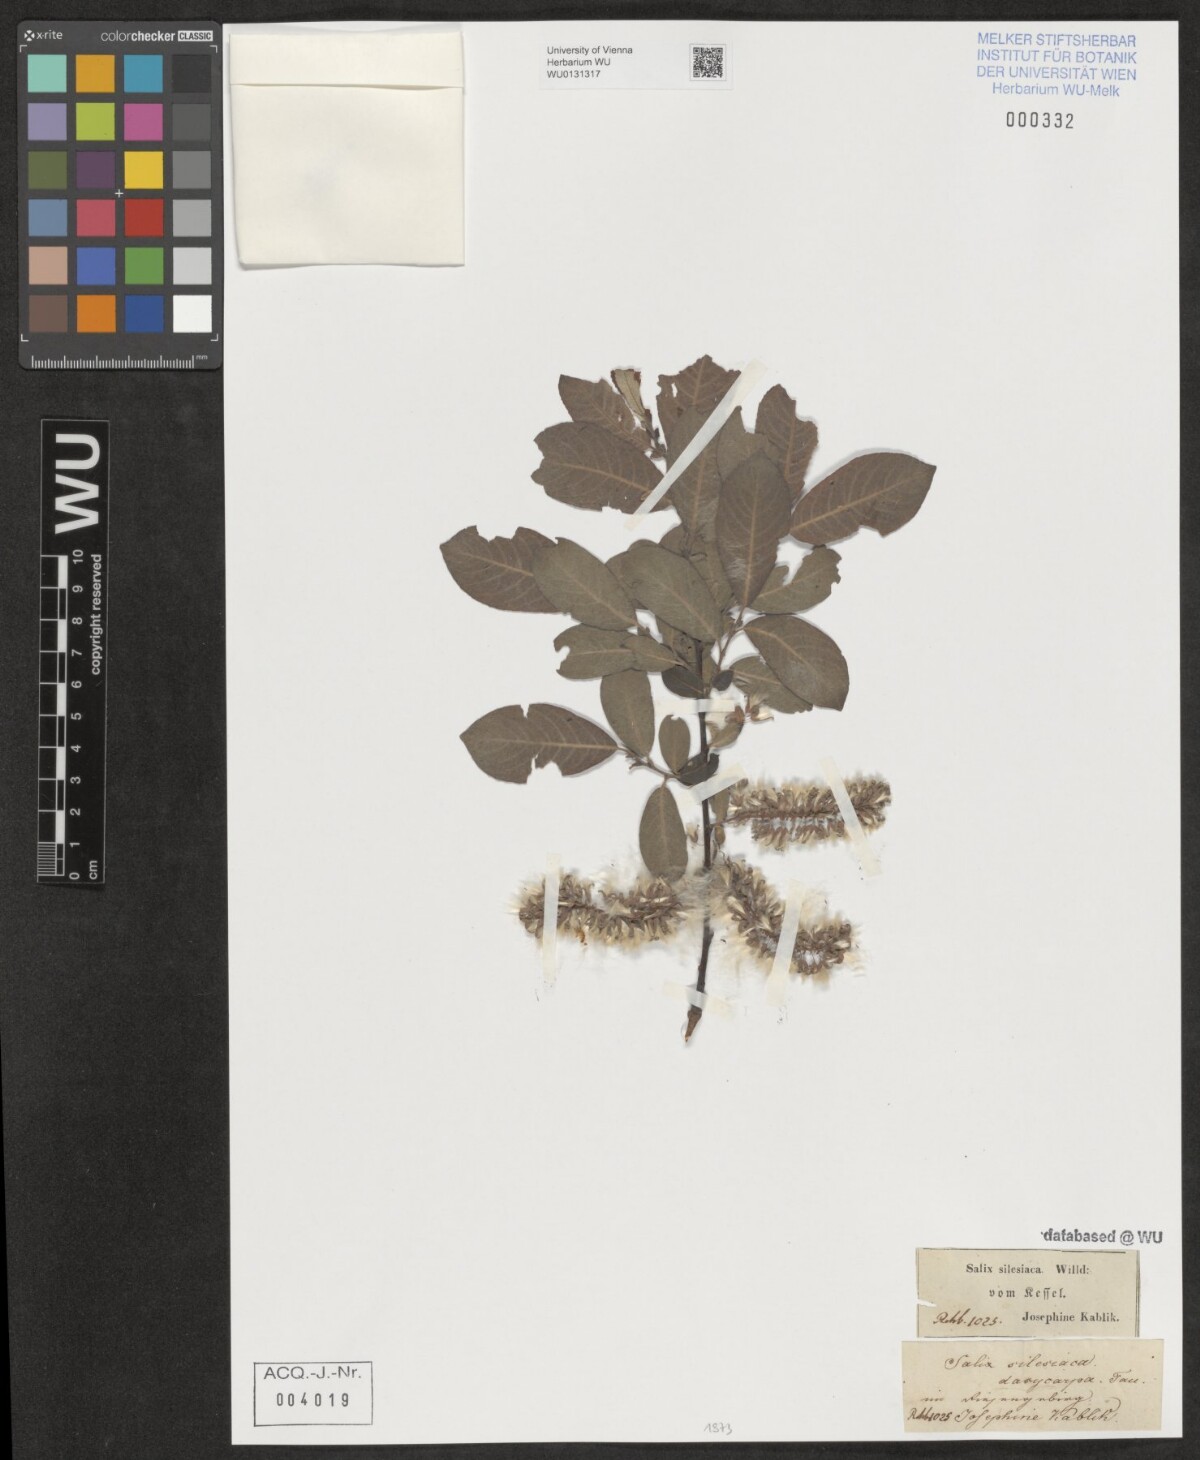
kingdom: Plantae
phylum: Tracheophyta
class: Magnoliopsida
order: Malpighiales
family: Salicaceae
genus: Salix
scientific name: Salix silesiaca
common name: Silesian willow
